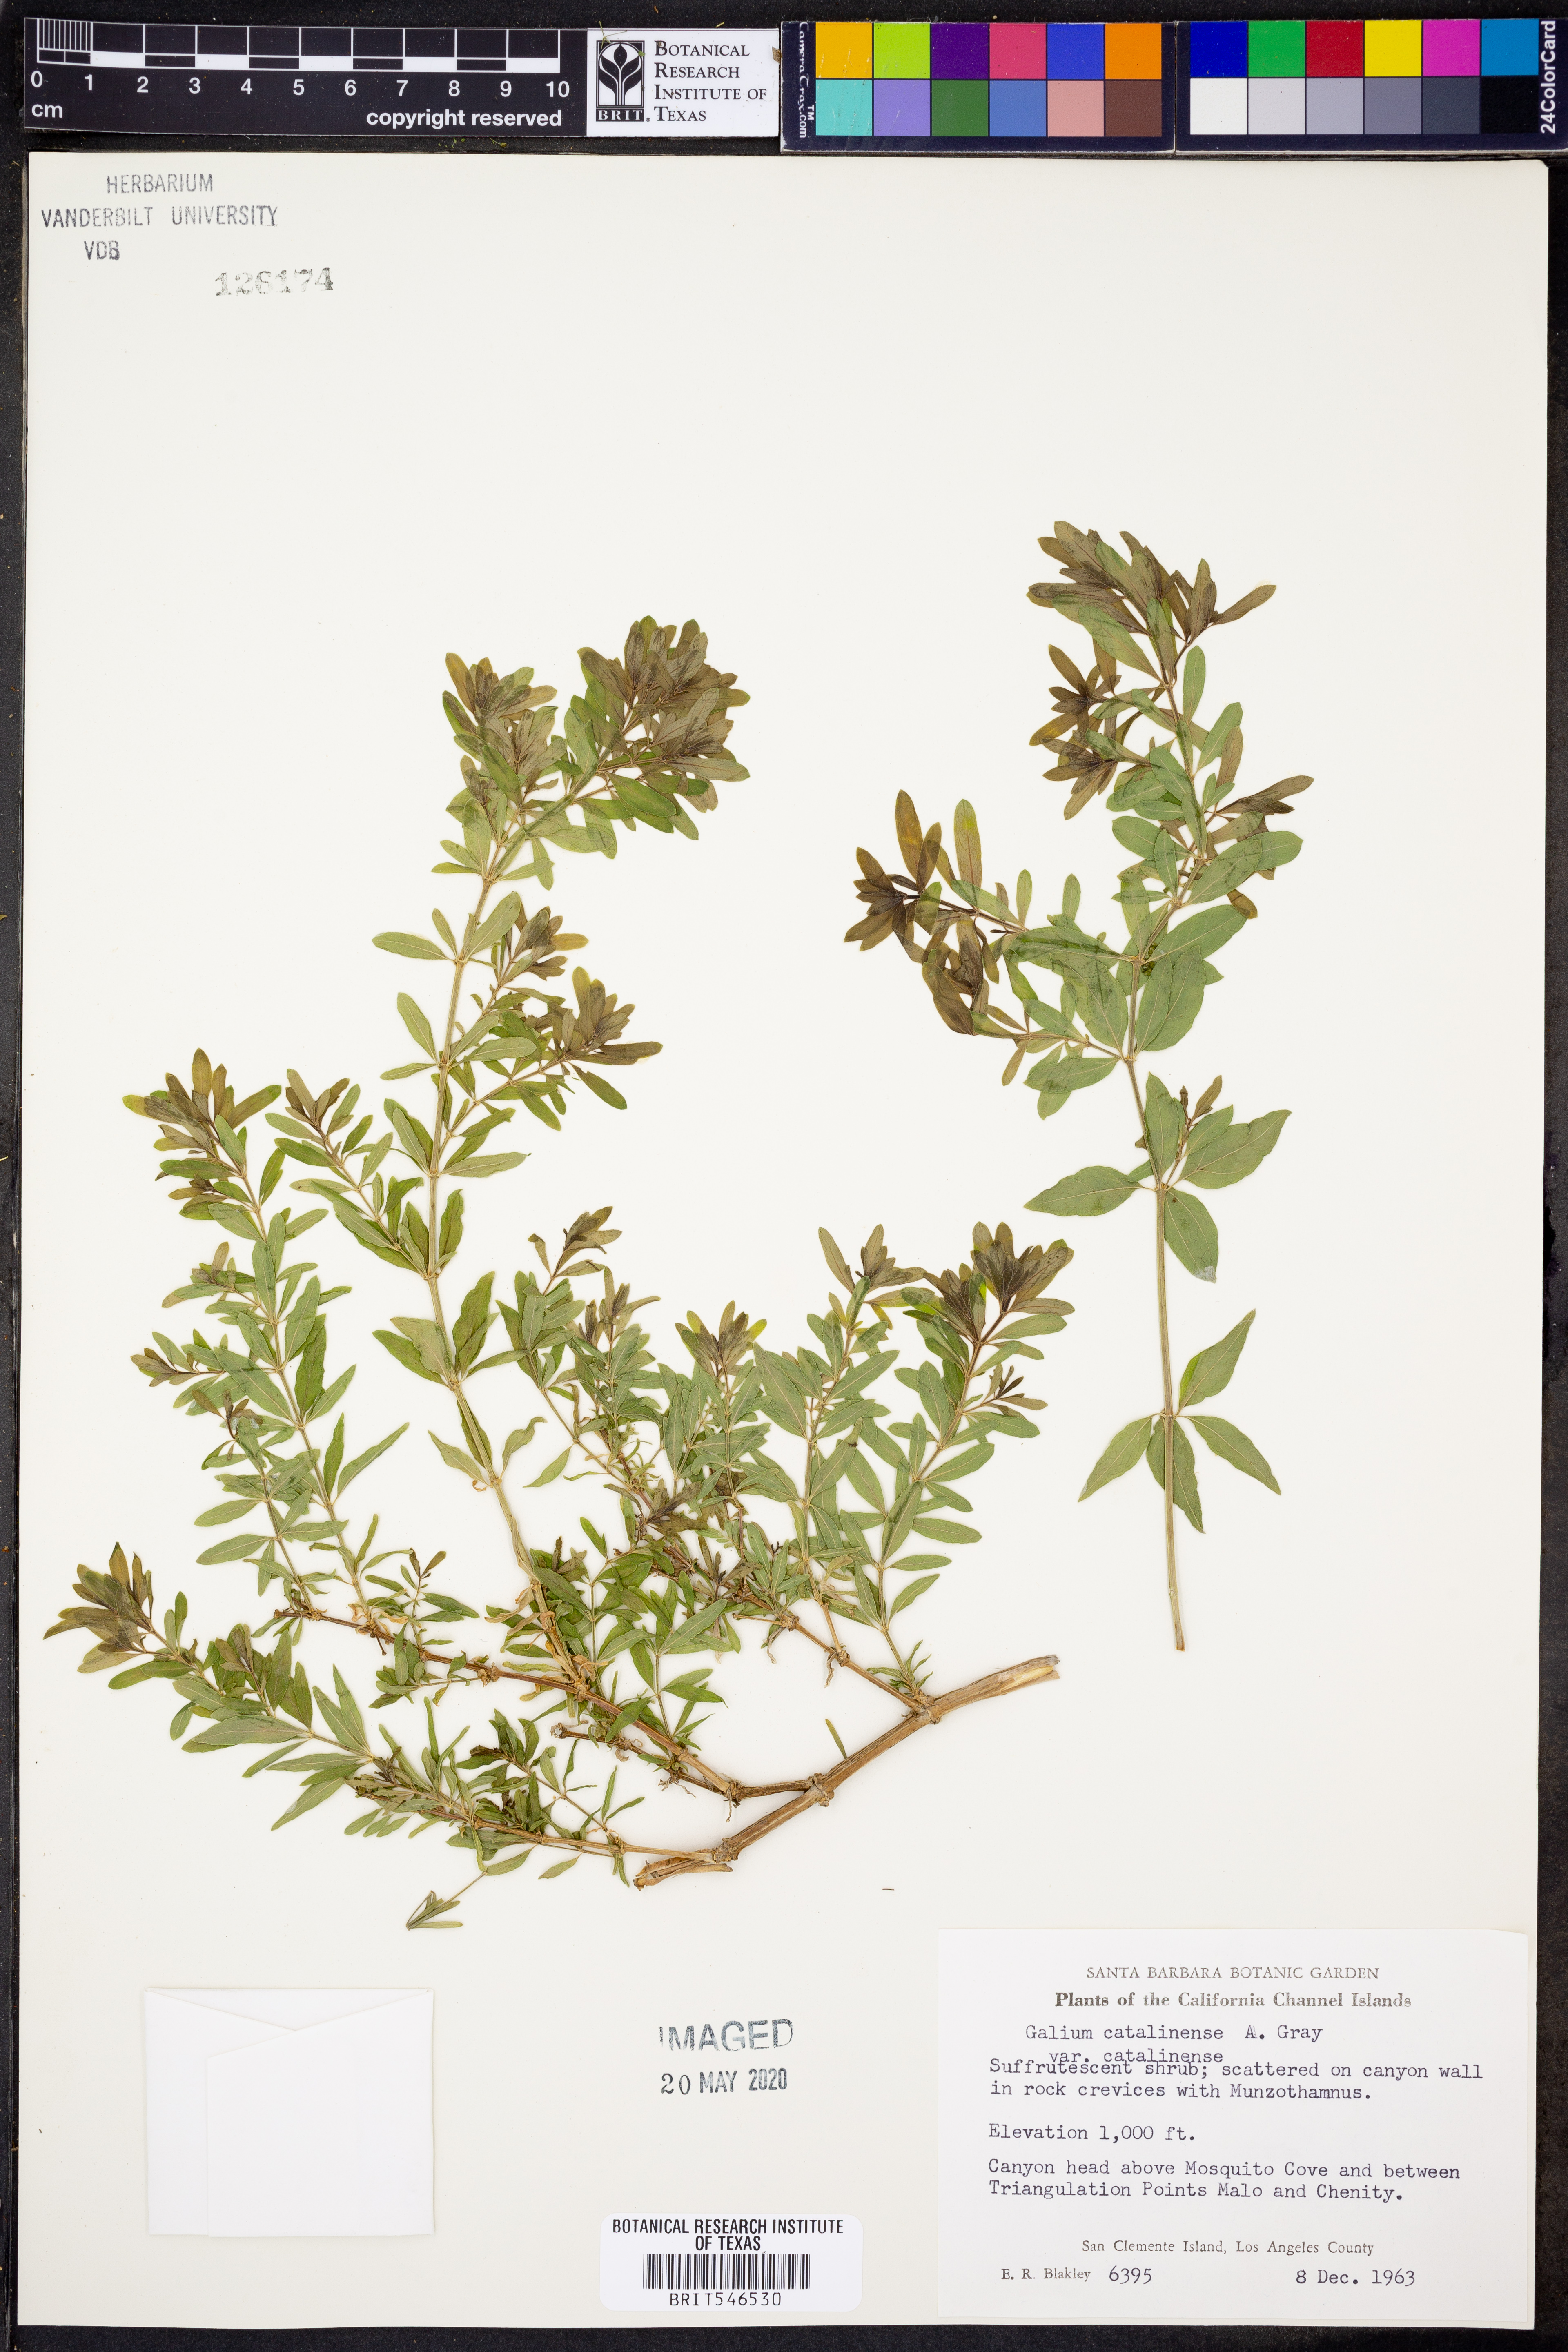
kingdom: Plantae
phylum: Tracheophyta
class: Magnoliopsida
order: Gentianales
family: Rubiaceae
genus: Galium
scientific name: Galium catalinense
